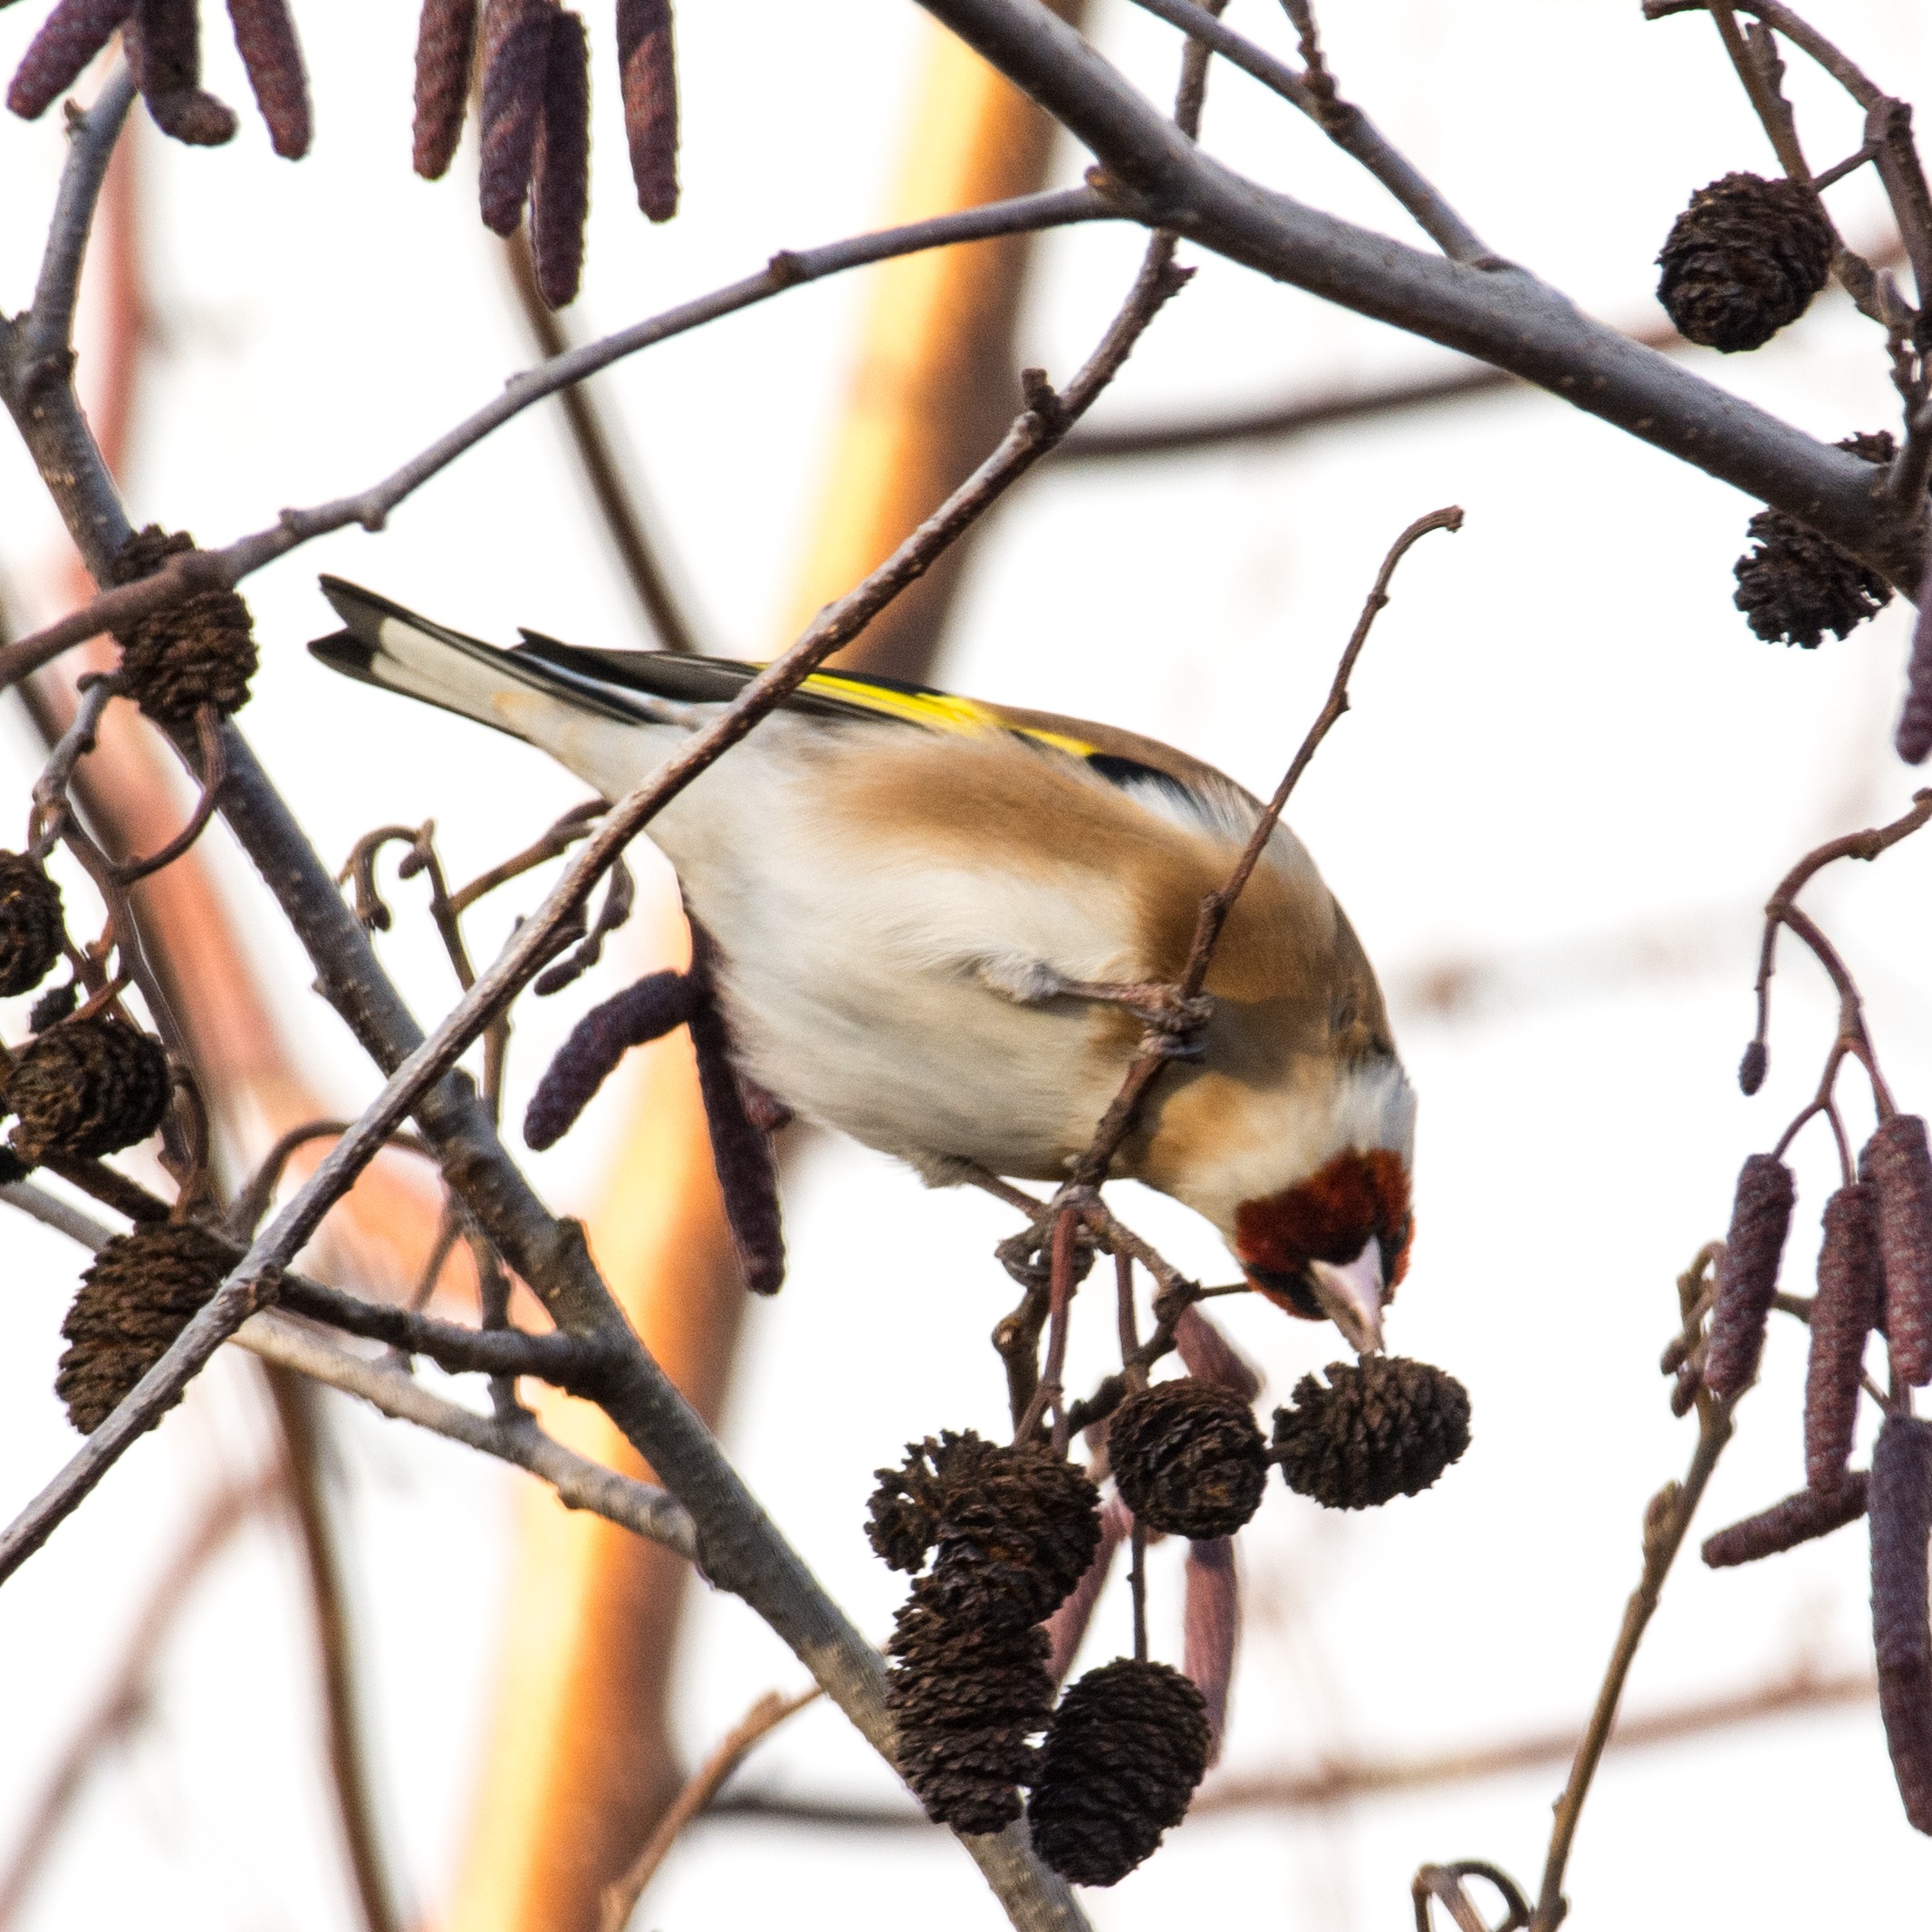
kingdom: Animalia
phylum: Chordata
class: Aves
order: Passeriformes
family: Fringillidae
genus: Carduelis
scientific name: Carduelis carduelis
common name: Stillits
